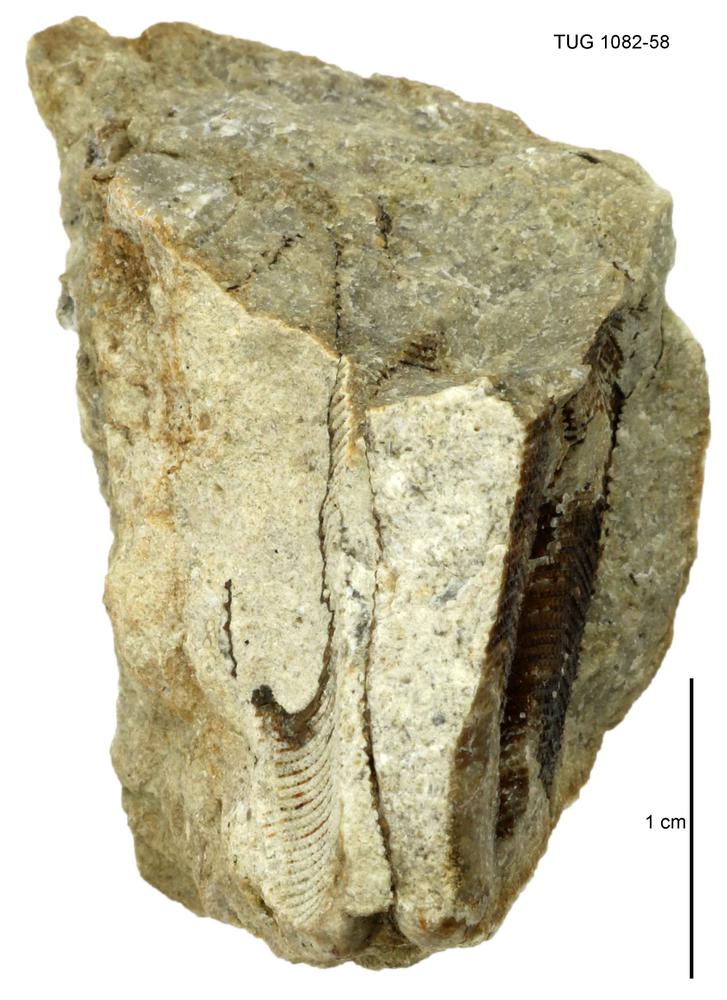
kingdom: Animalia
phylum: Cnidaria
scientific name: Cnidaria
